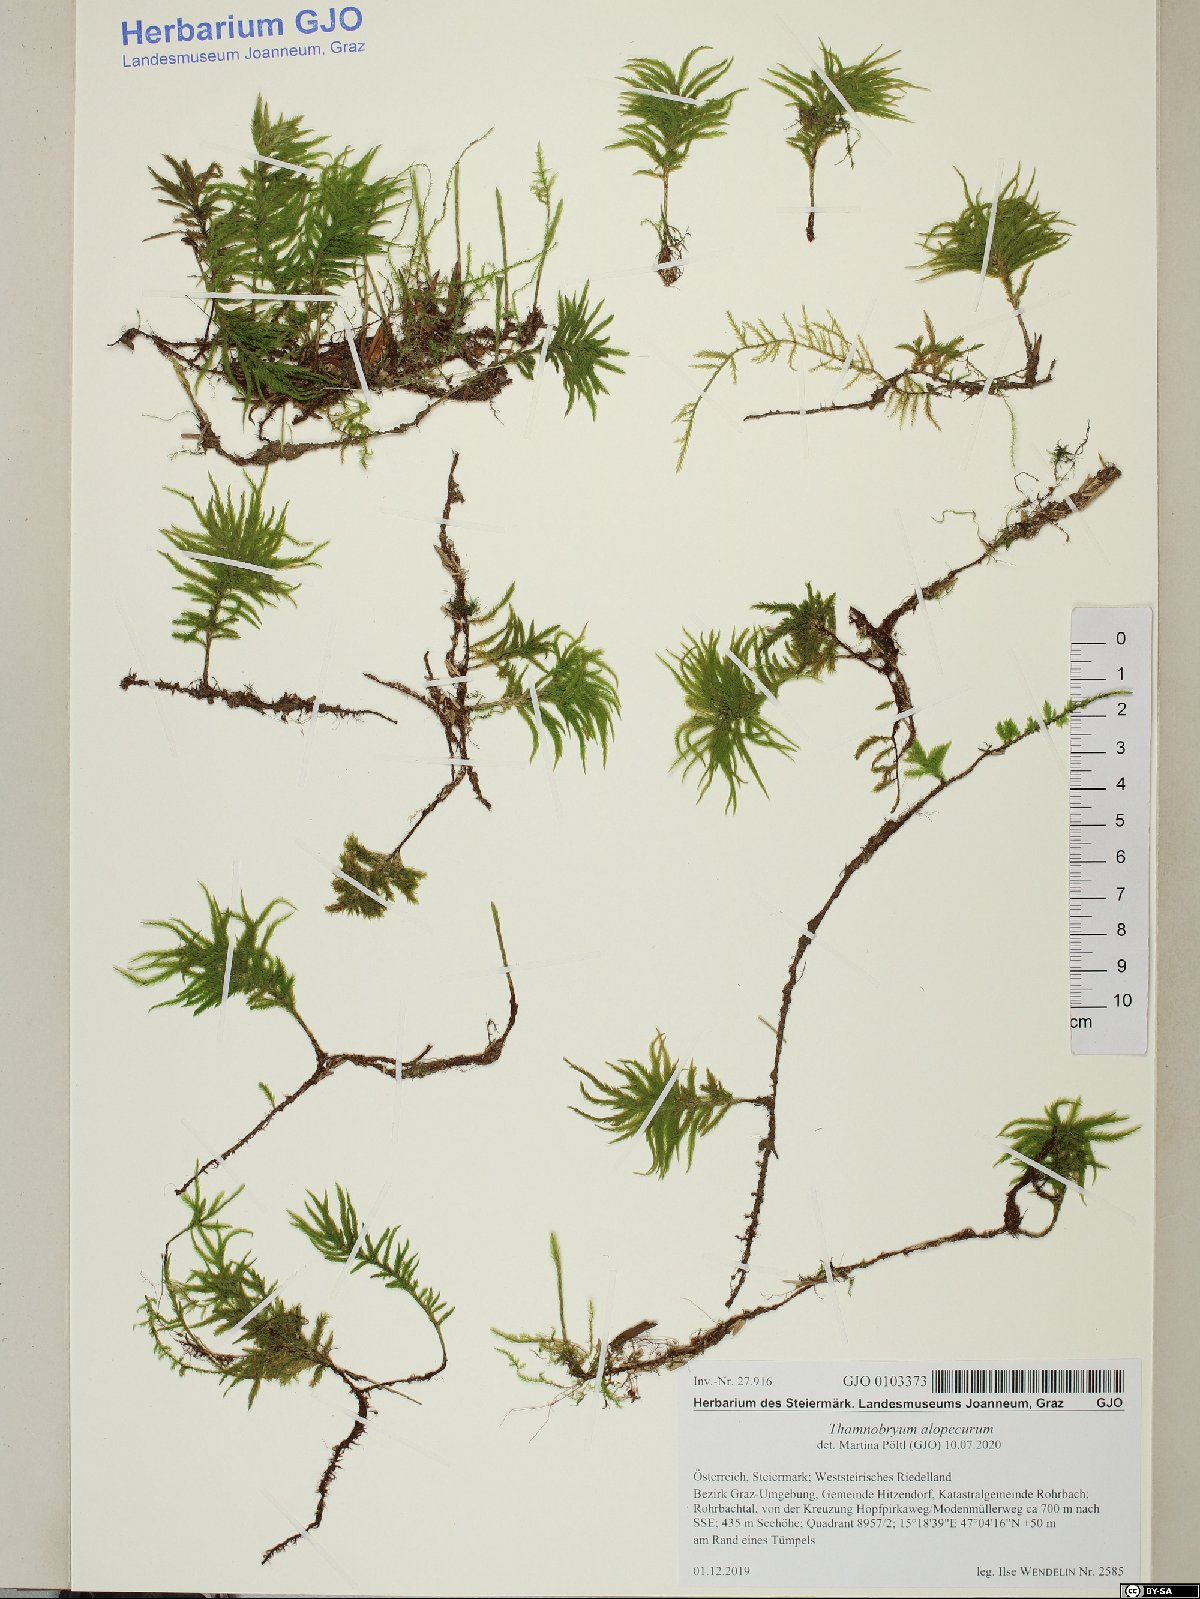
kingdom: Plantae
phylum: Bryophyta
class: Bryopsida
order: Hypnales
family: Neckeraceae
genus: Thamnobryum
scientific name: Thamnobryum alopecurum
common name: Fox-tail feather-moss
